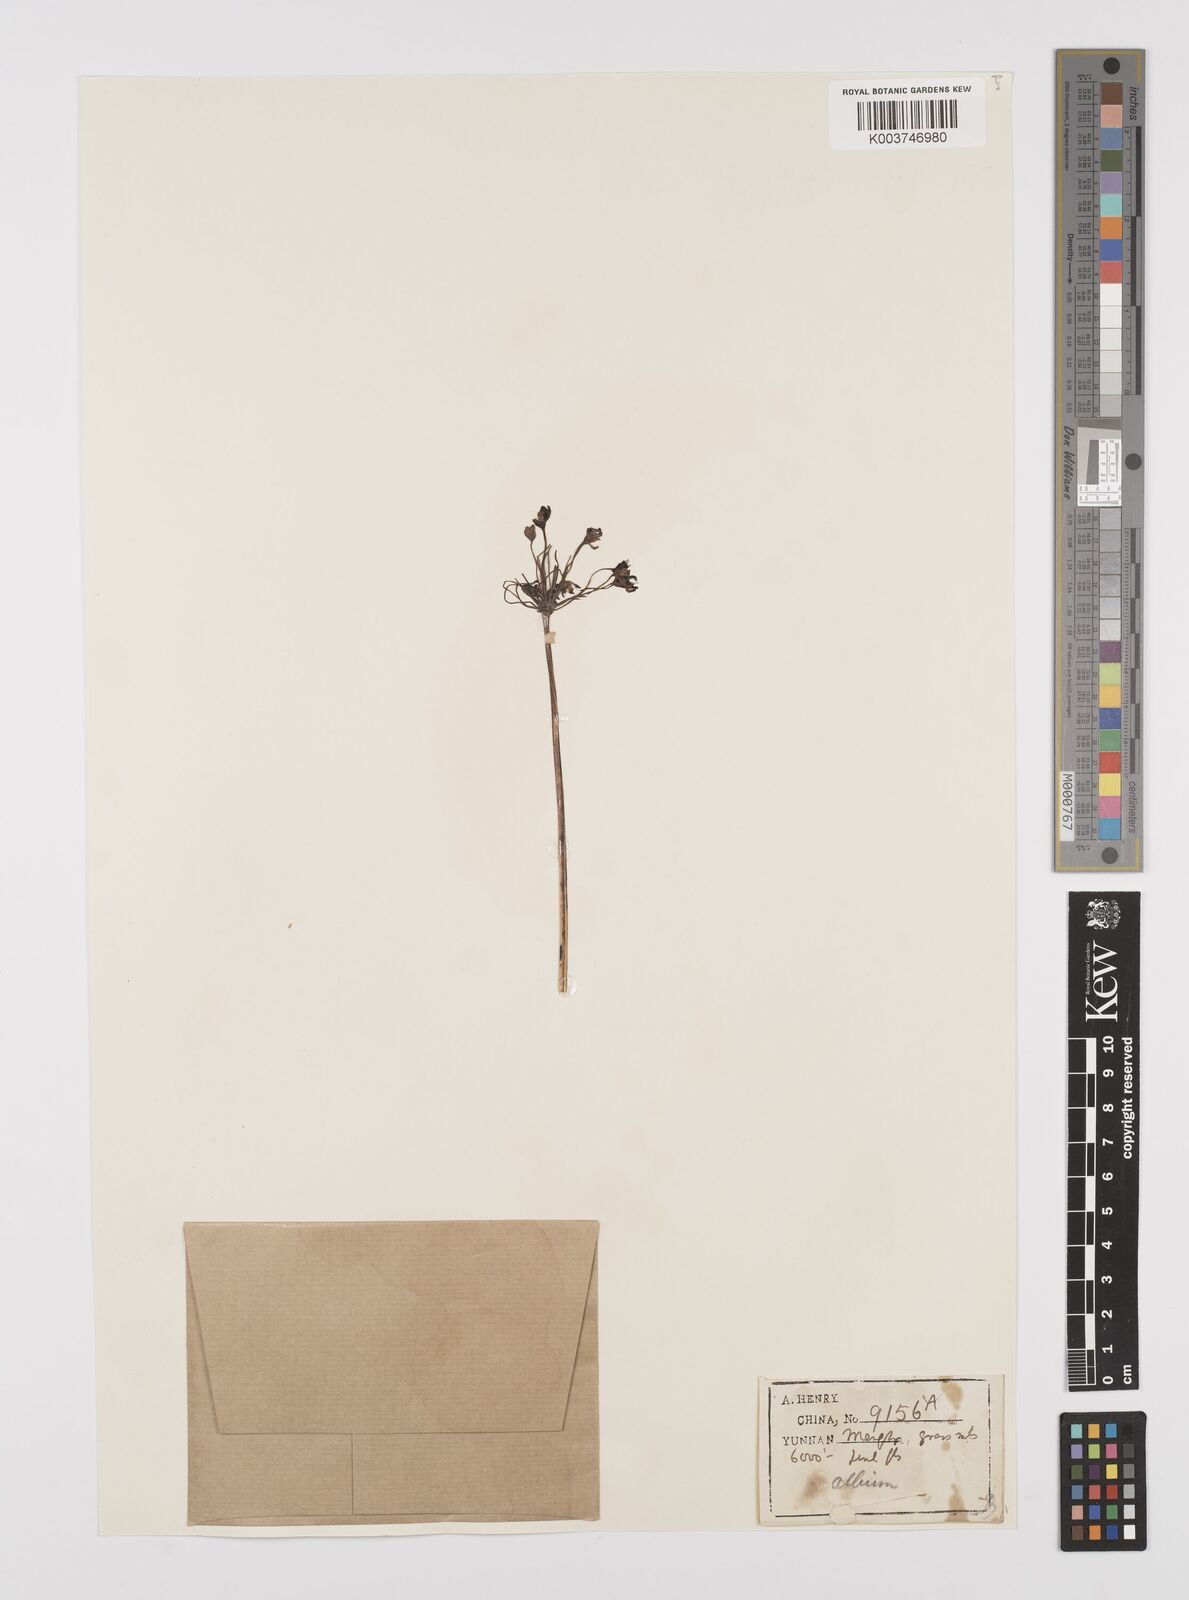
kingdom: Plantae
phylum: Tracheophyta
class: Liliopsida
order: Asparagales
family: Amaryllidaceae
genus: Allium
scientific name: Allium
